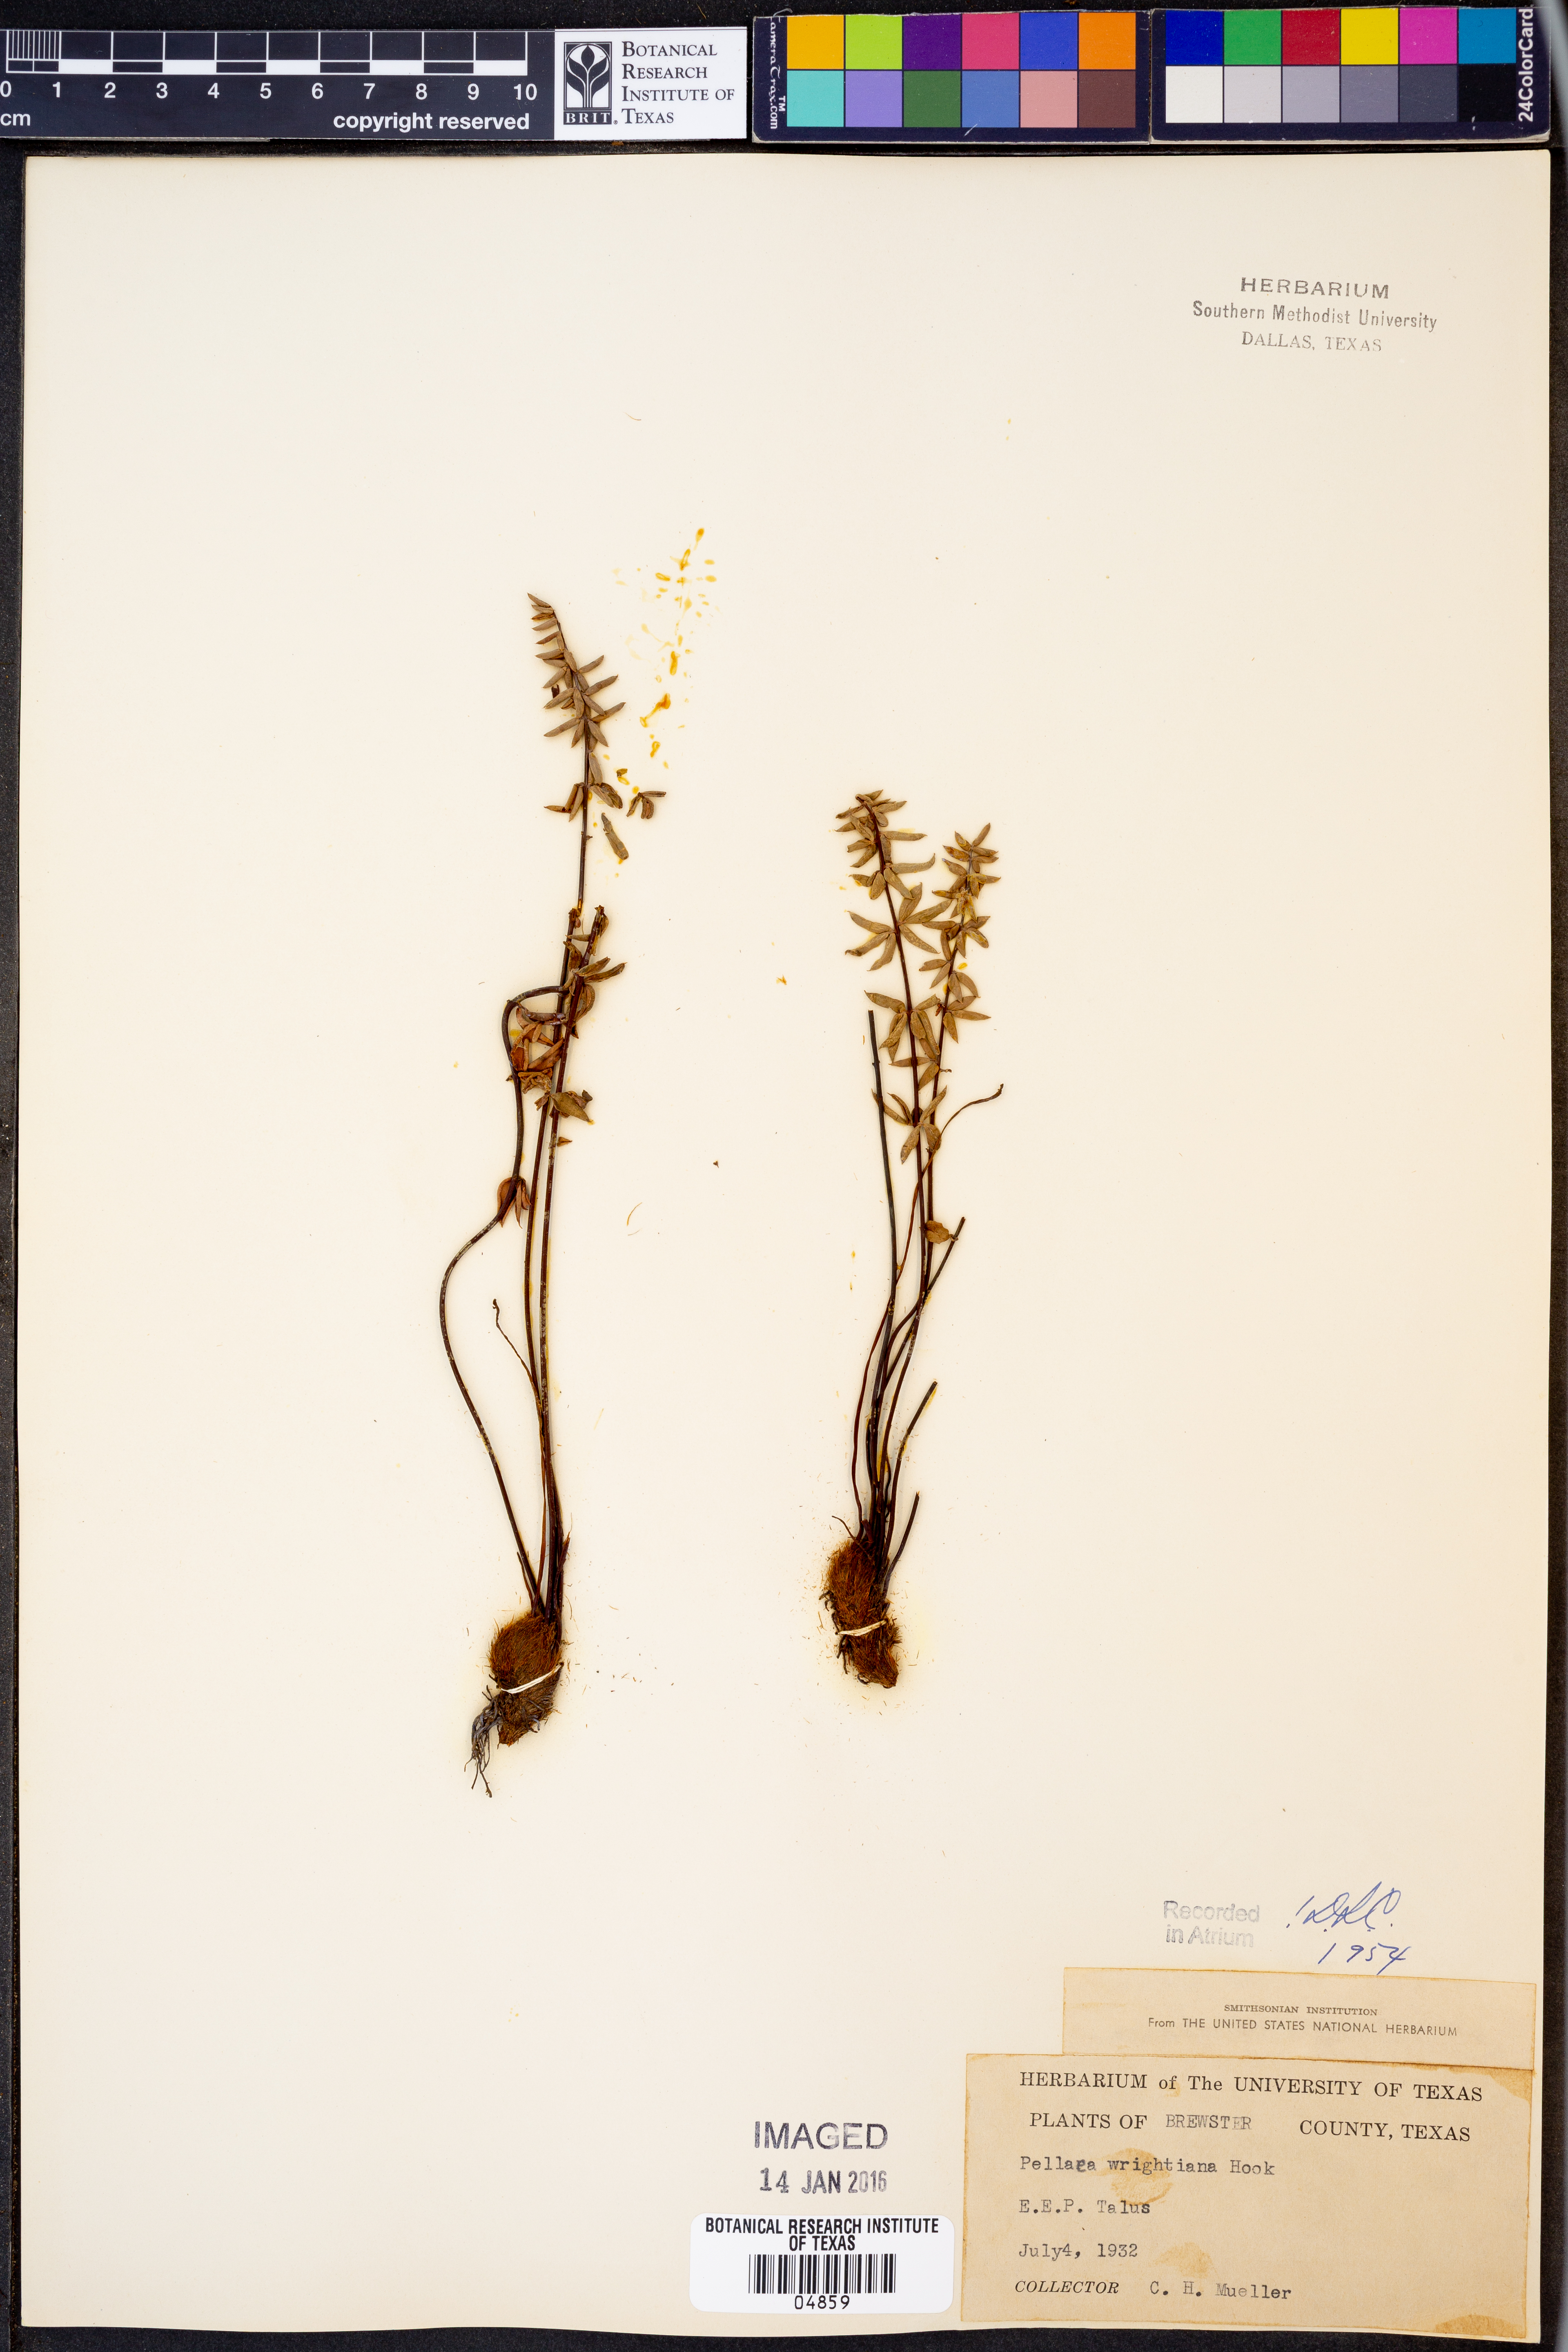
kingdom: Plantae
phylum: Tracheophyta
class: Polypodiopsida
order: Polypodiales
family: Pteridaceae
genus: Pellaea
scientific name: Pellaea wrightiana
